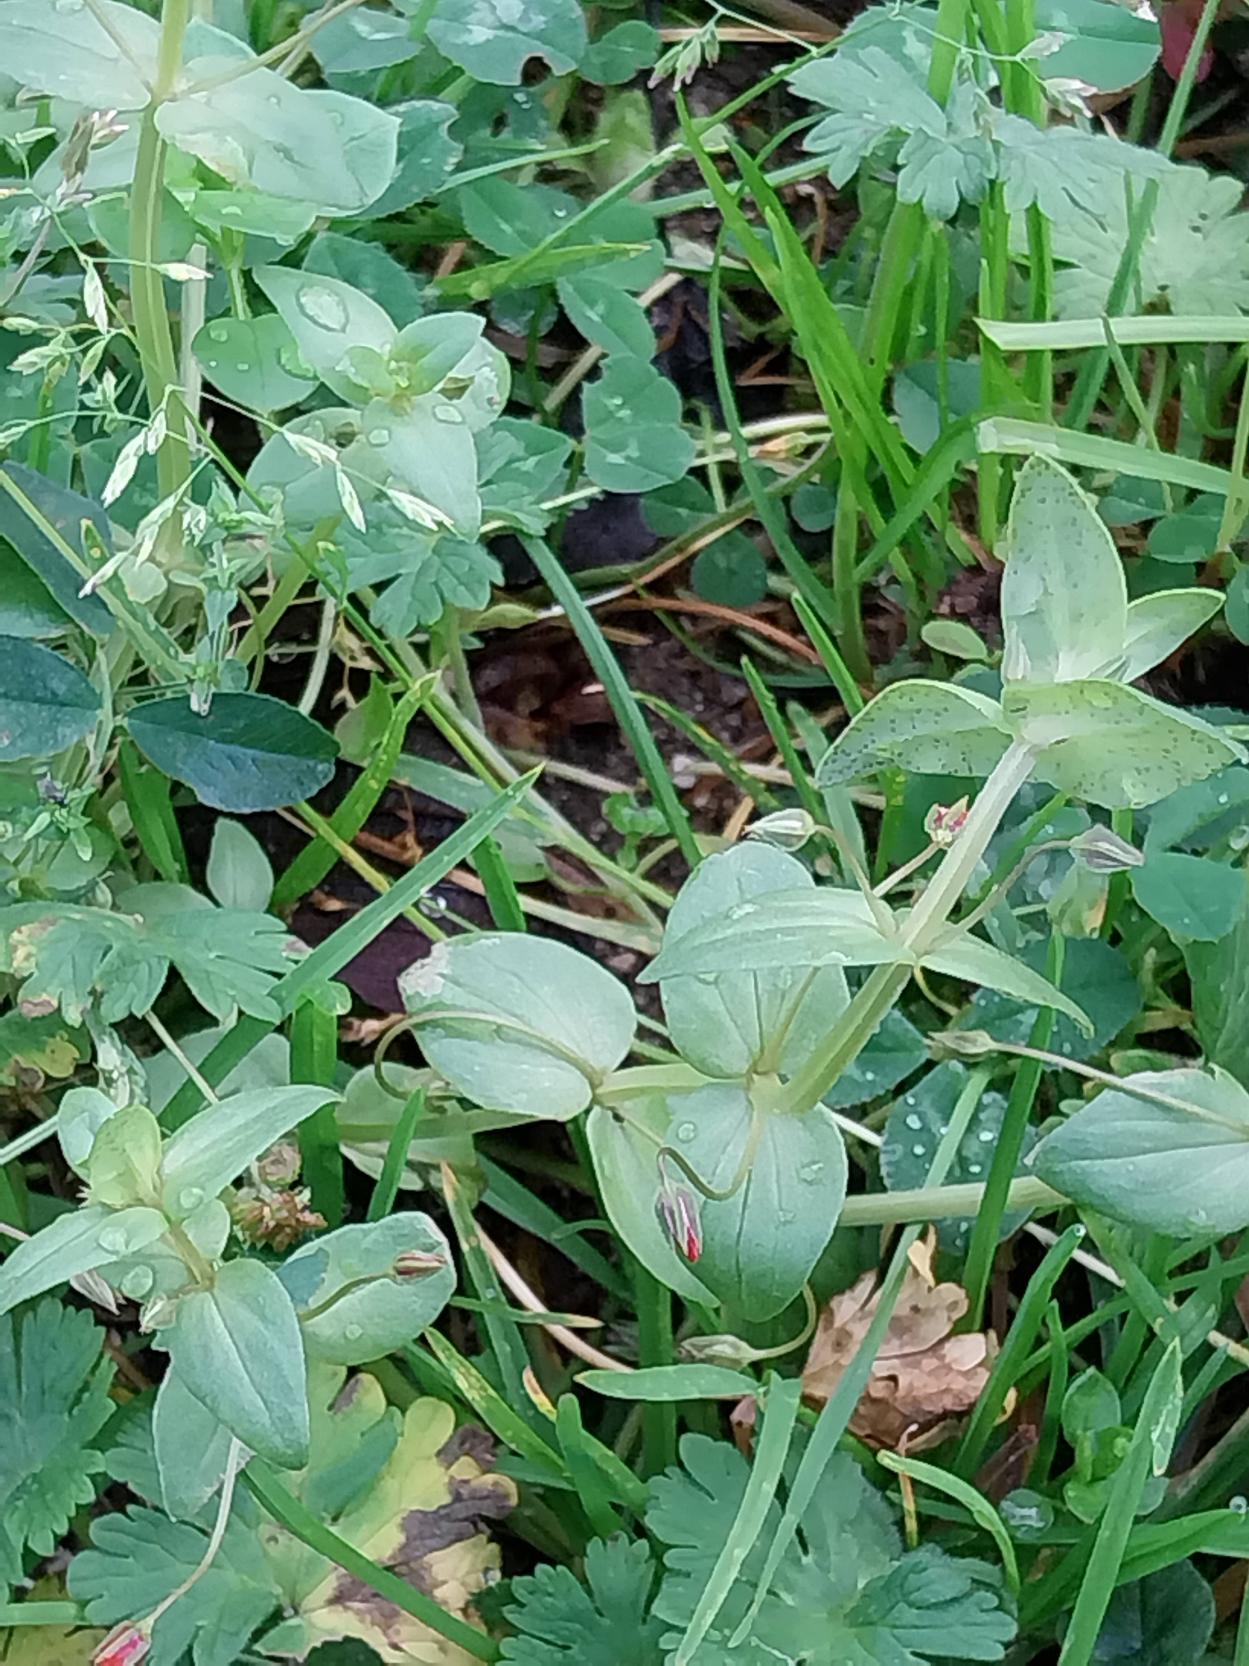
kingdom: Plantae
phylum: Tracheophyta
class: Magnoliopsida
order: Ericales
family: Primulaceae
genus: Lysimachia
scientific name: Lysimachia arvensis
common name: Rød arve
